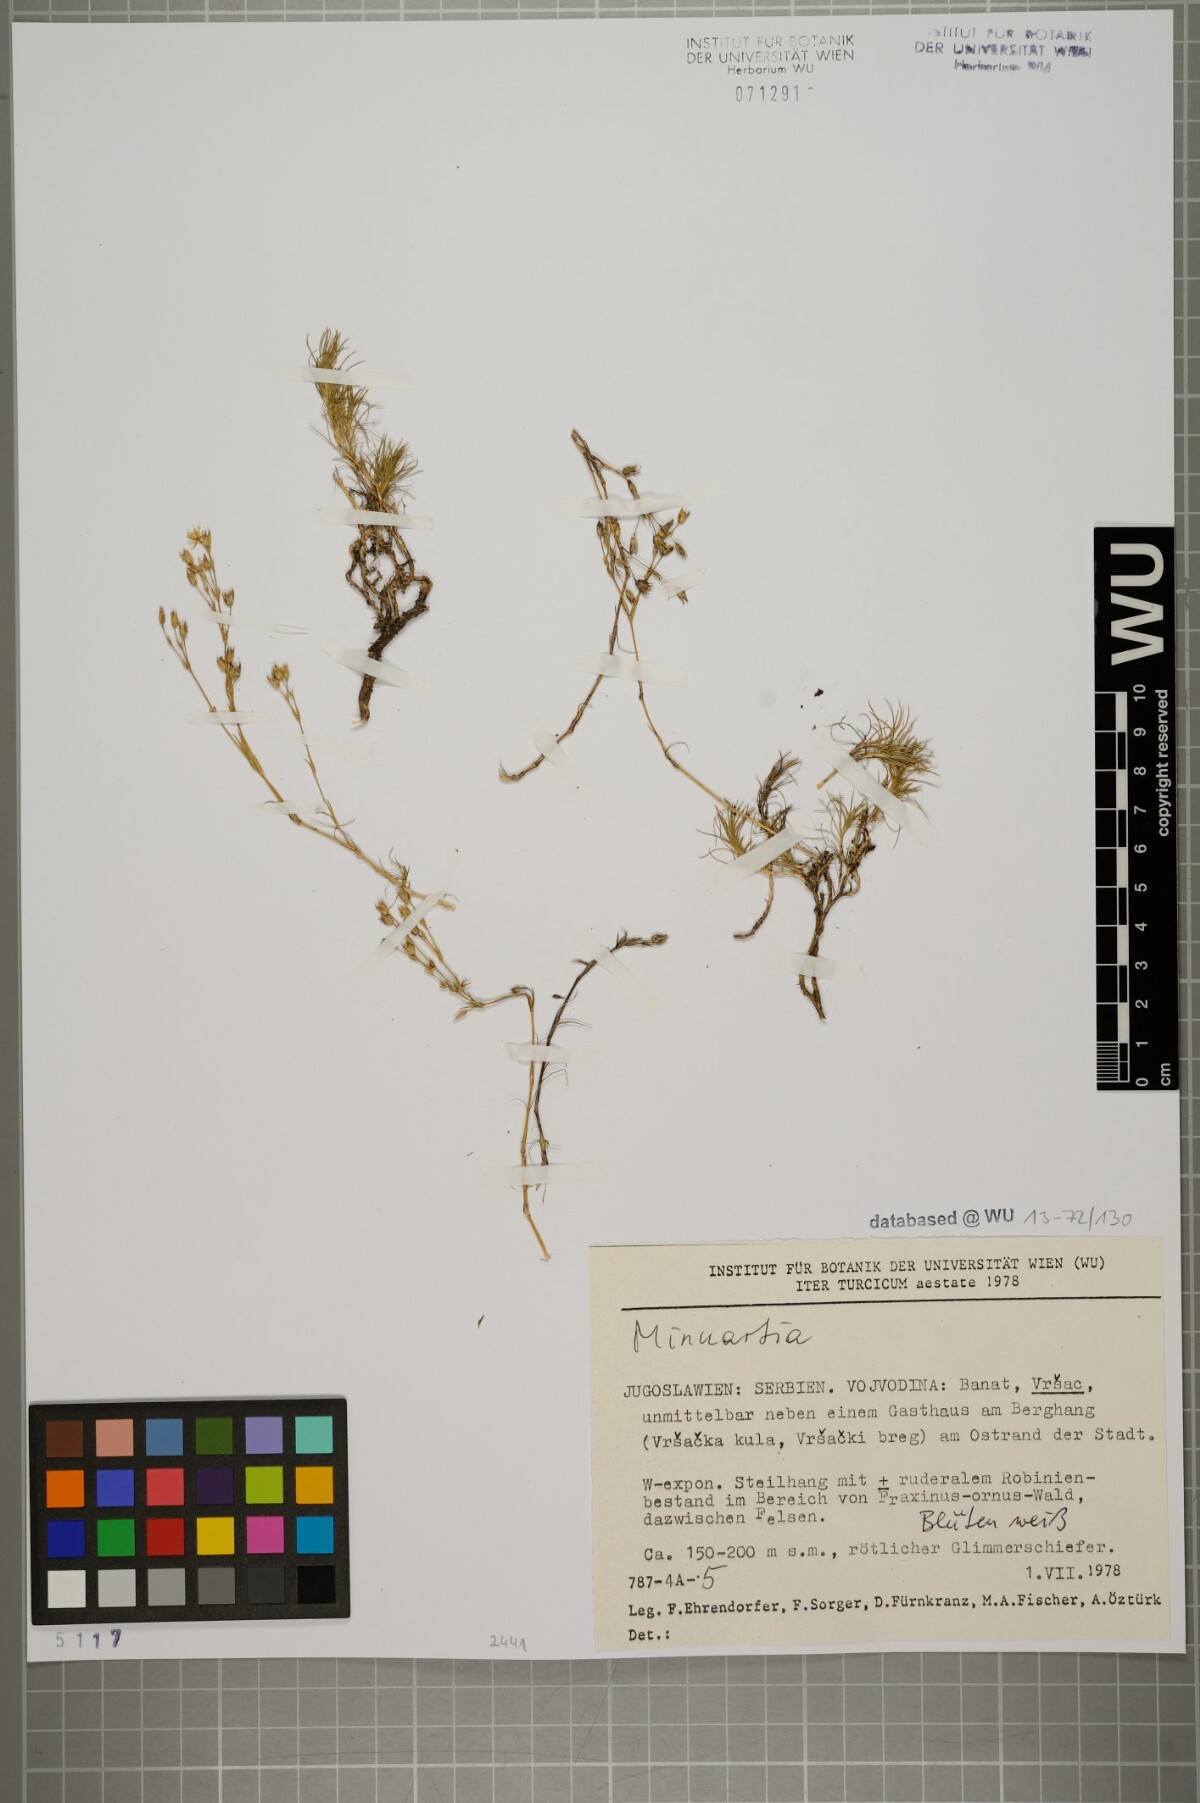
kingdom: Plantae
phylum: Tracheophyta
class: Magnoliopsida
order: Caryophyllales
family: Caryophyllaceae
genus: Minuartia
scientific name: Minuartia hirsuta
